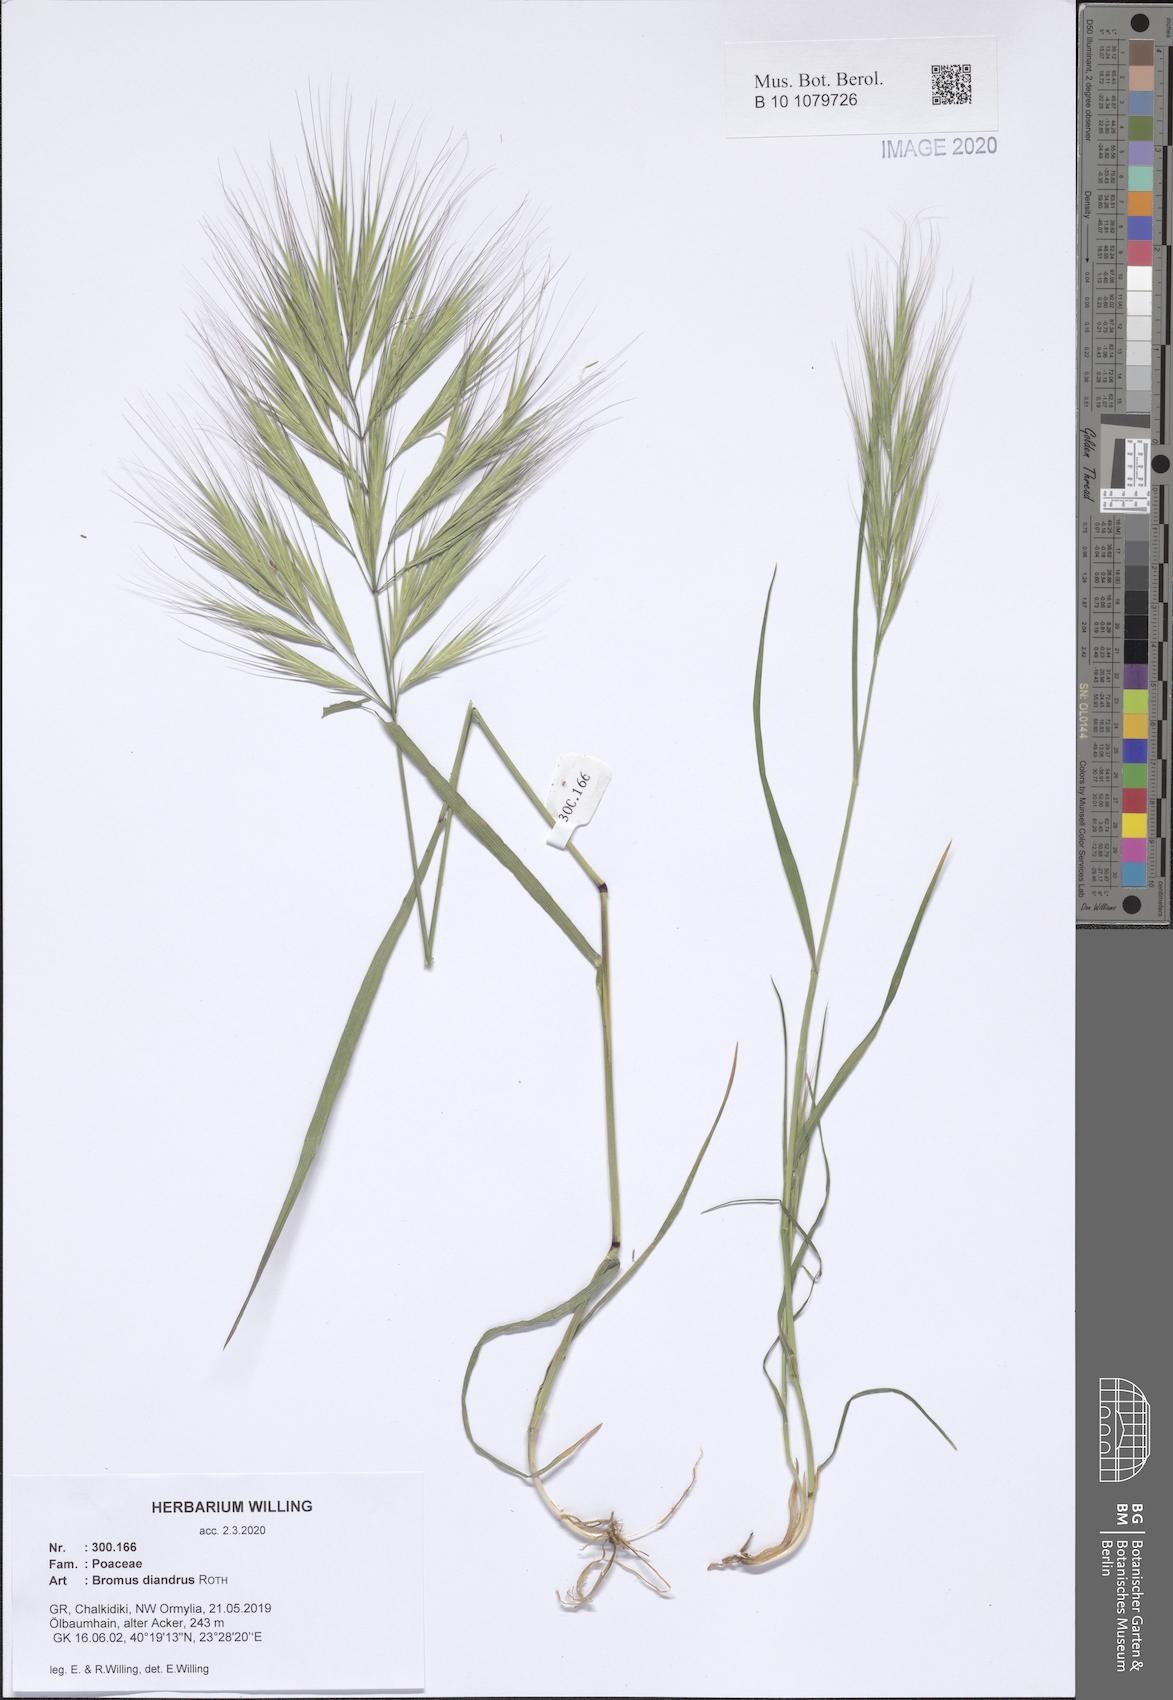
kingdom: Plantae
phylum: Tracheophyta
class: Liliopsida
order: Poales
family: Poaceae
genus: Bromus
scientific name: Bromus diandrus
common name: Ripgut brome
